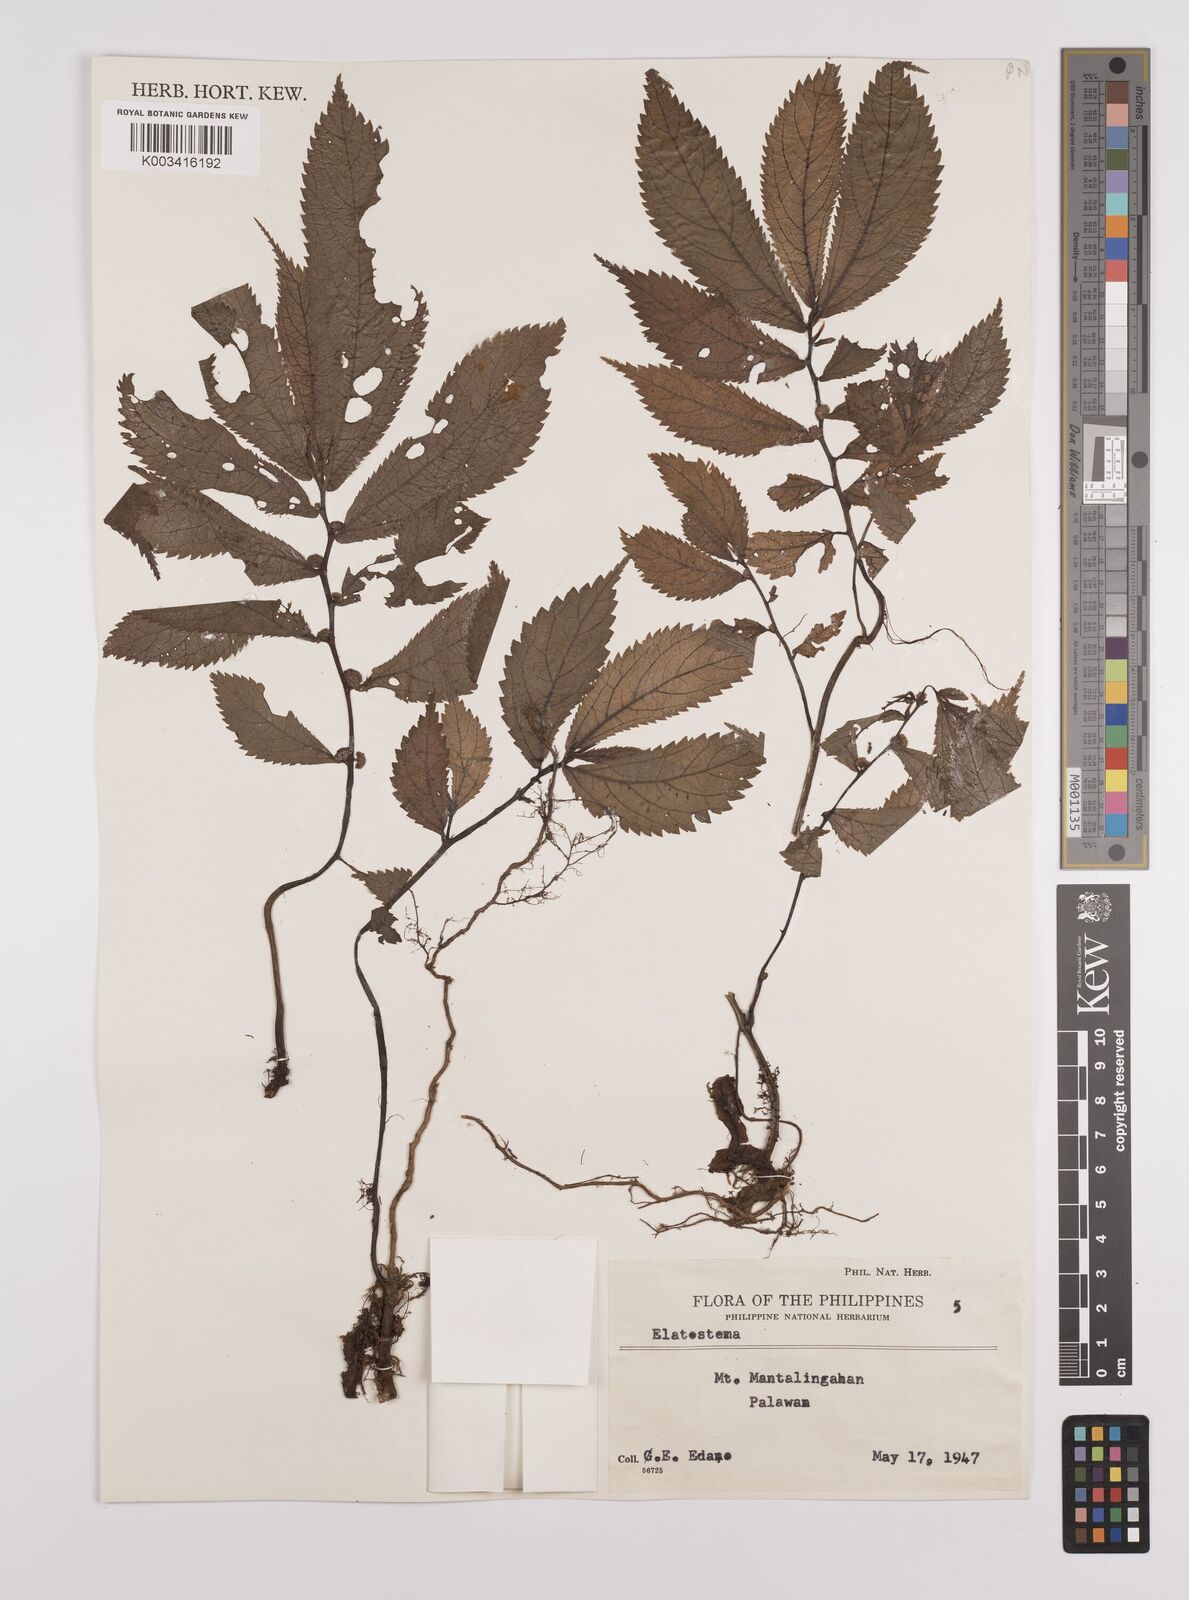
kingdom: Plantae
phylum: Tracheophyta
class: Magnoliopsida
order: Rosales
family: Urticaceae
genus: Elatostema
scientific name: Elatostema
